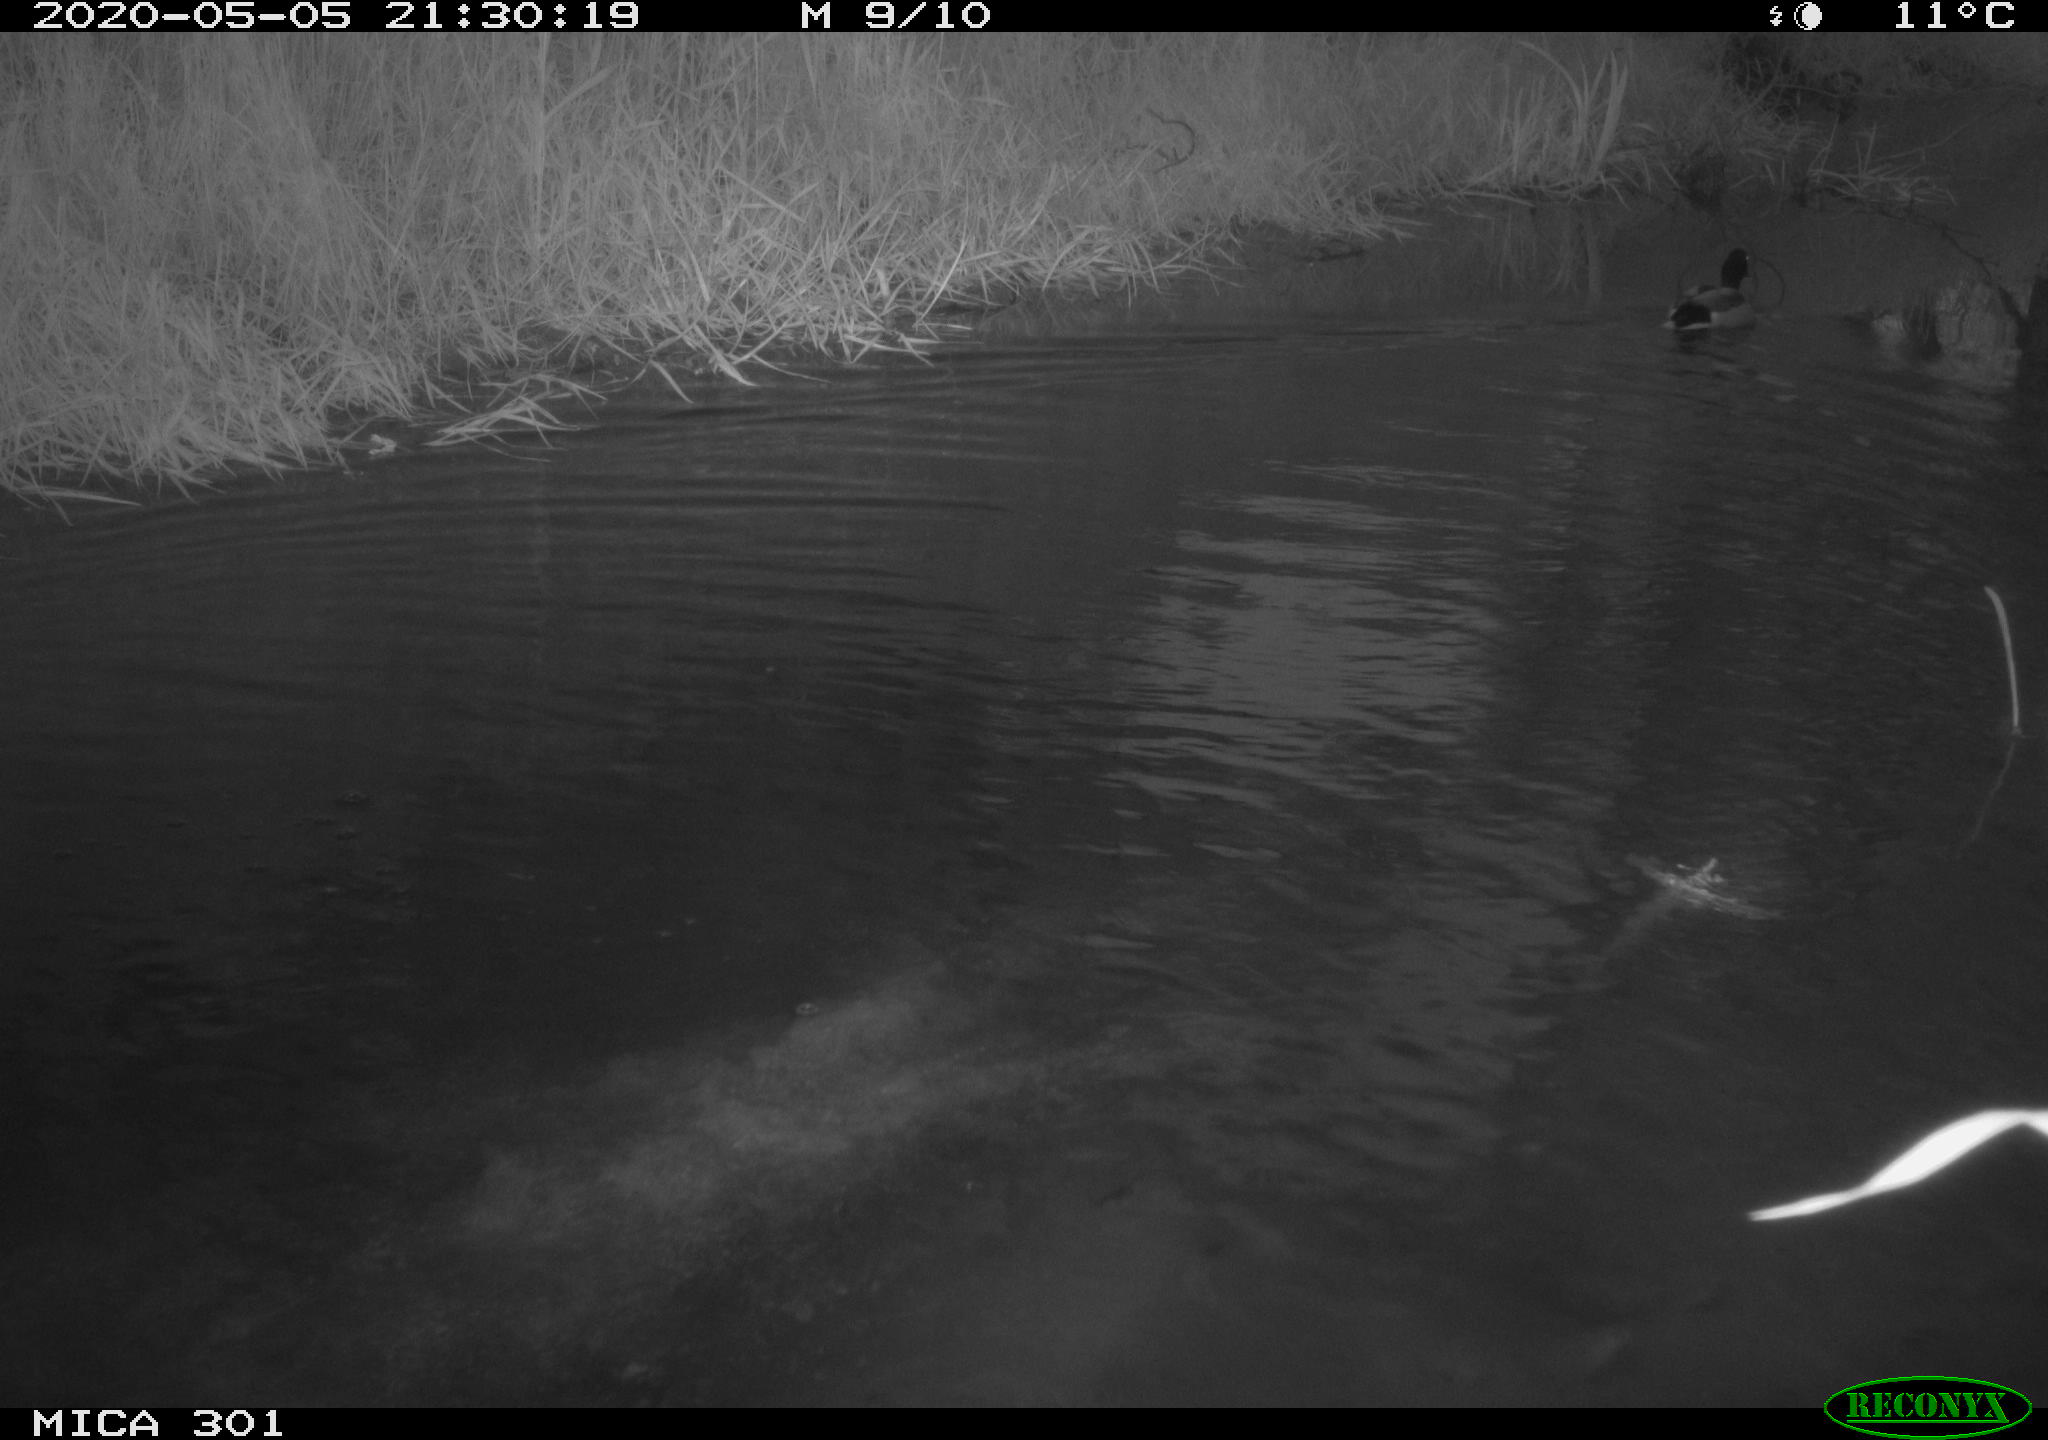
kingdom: Animalia
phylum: Chordata
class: Aves
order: Anseriformes
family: Anatidae
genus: Anas
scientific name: Anas platyrhynchos
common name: Mallard
